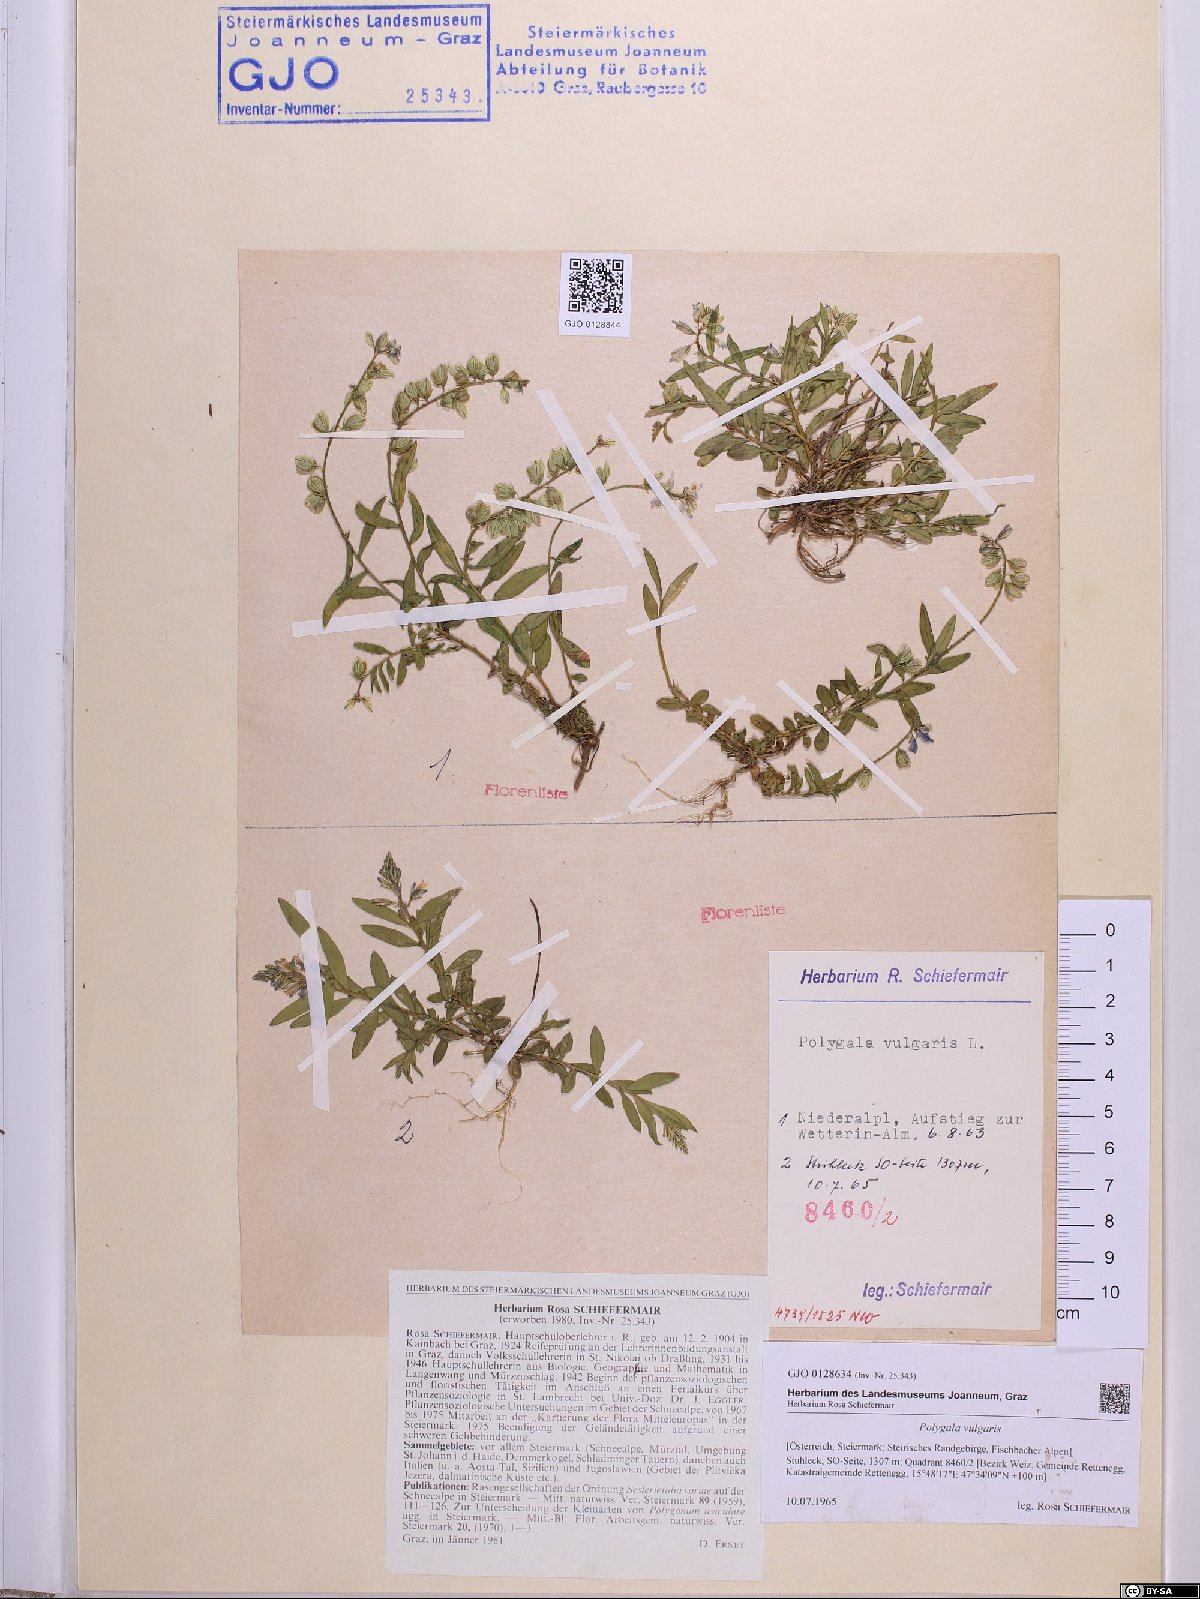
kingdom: Plantae
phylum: Tracheophyta
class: Magnoliopsida
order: Fabales
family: Polygalaceae
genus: Polygala
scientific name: Polygala vulgaris
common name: Common milkwort
